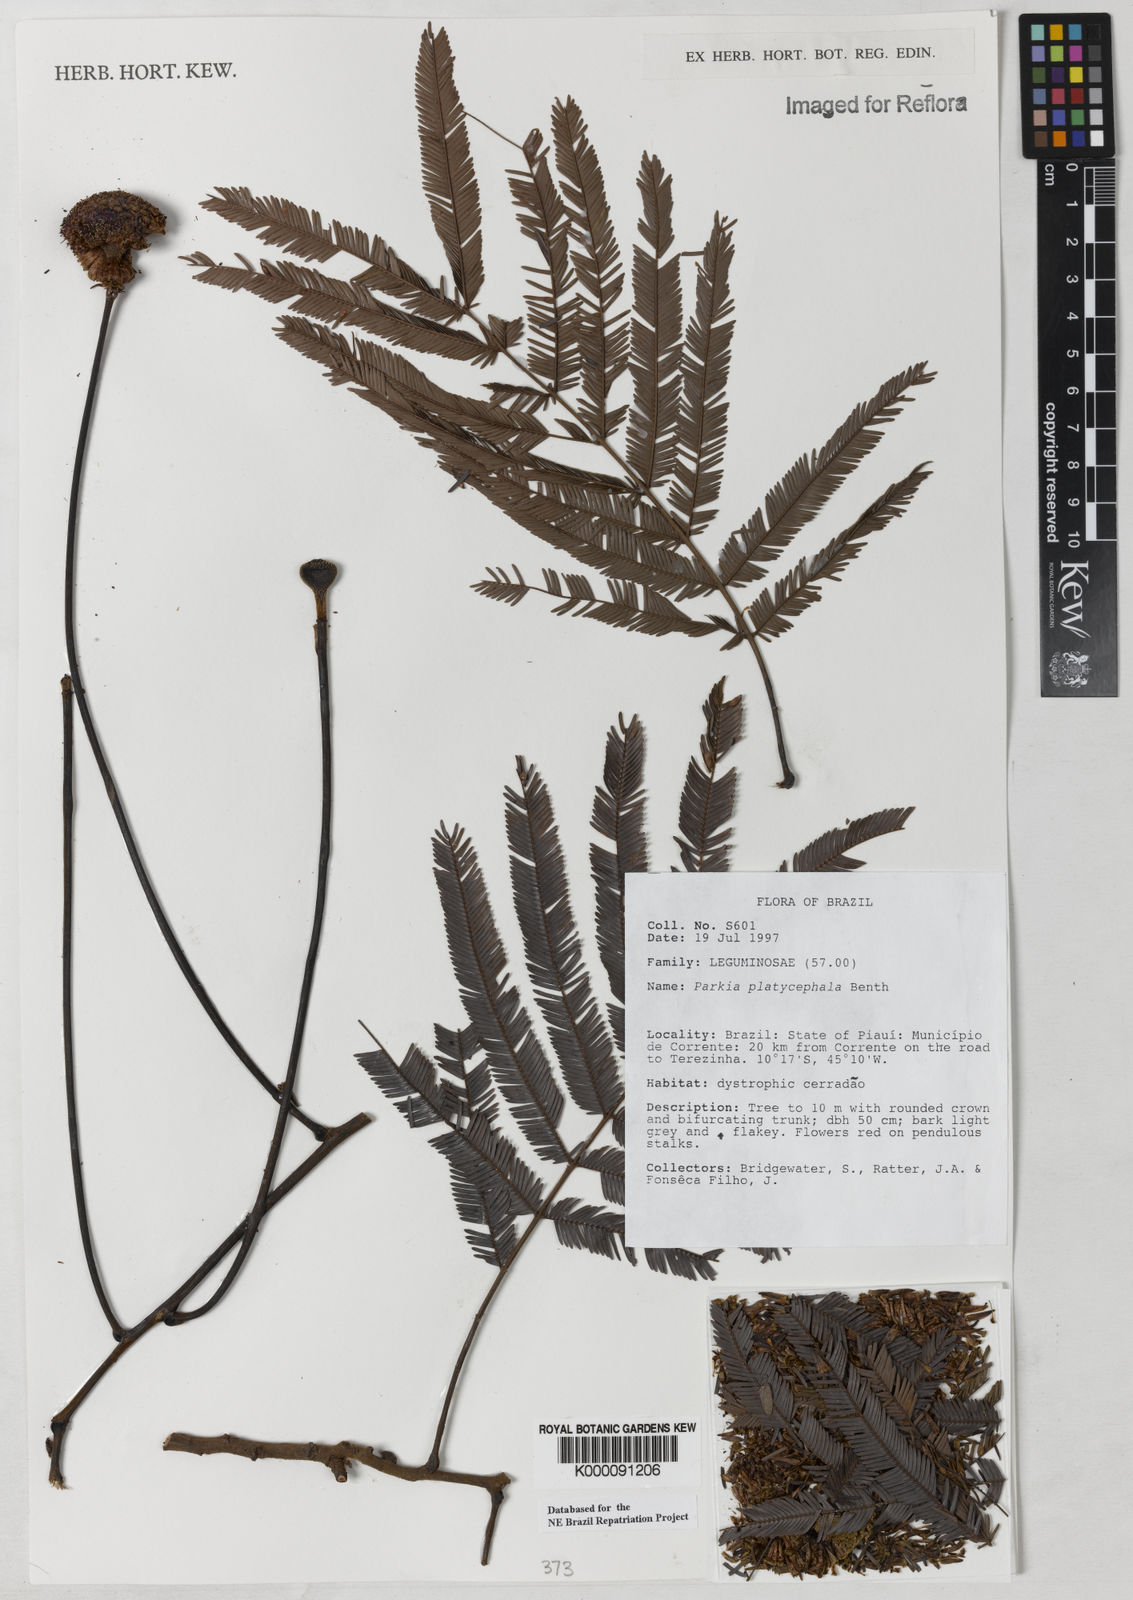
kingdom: Plantae
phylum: Tracheophyta
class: Magnoliopsida
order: Fabales
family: Fabaceae
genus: Parkia
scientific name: Parkia platycephala
